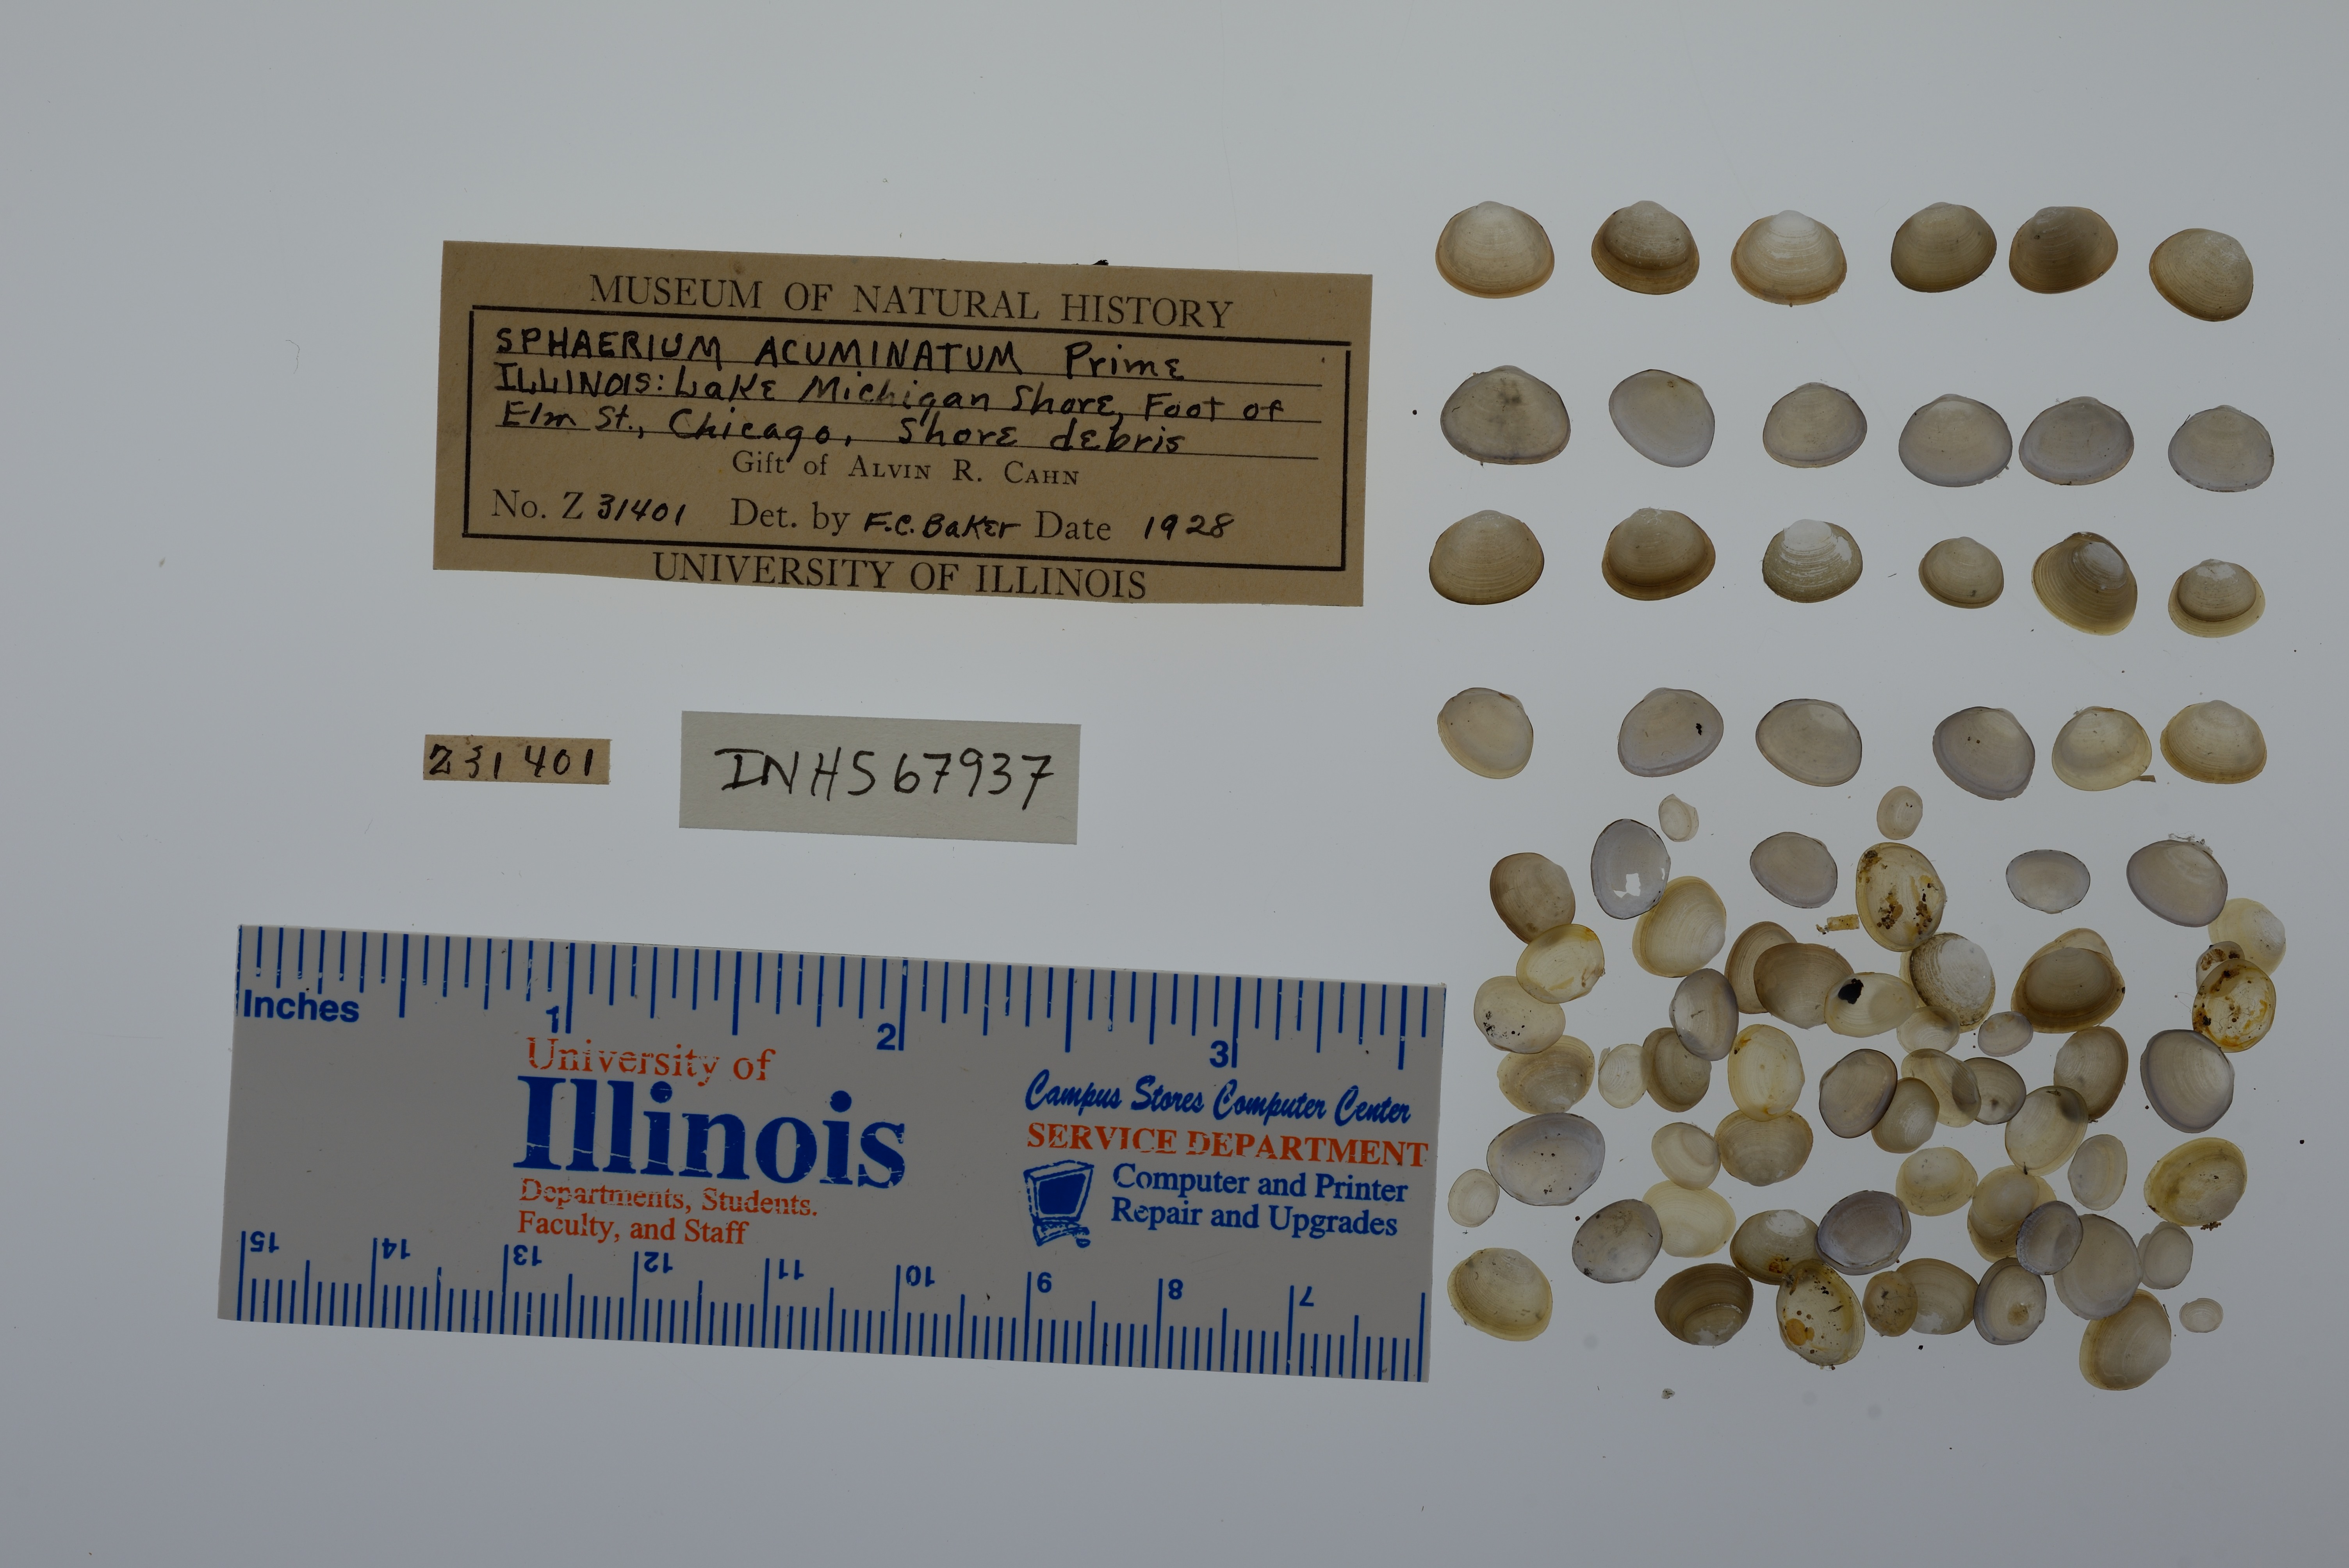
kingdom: Animalia
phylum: Mollusca
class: Bivalvia
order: Sphaeriida
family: Sphaeriidae
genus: Sphaerium
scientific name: Sphaerium striatinum
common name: Striated fingernailclam
